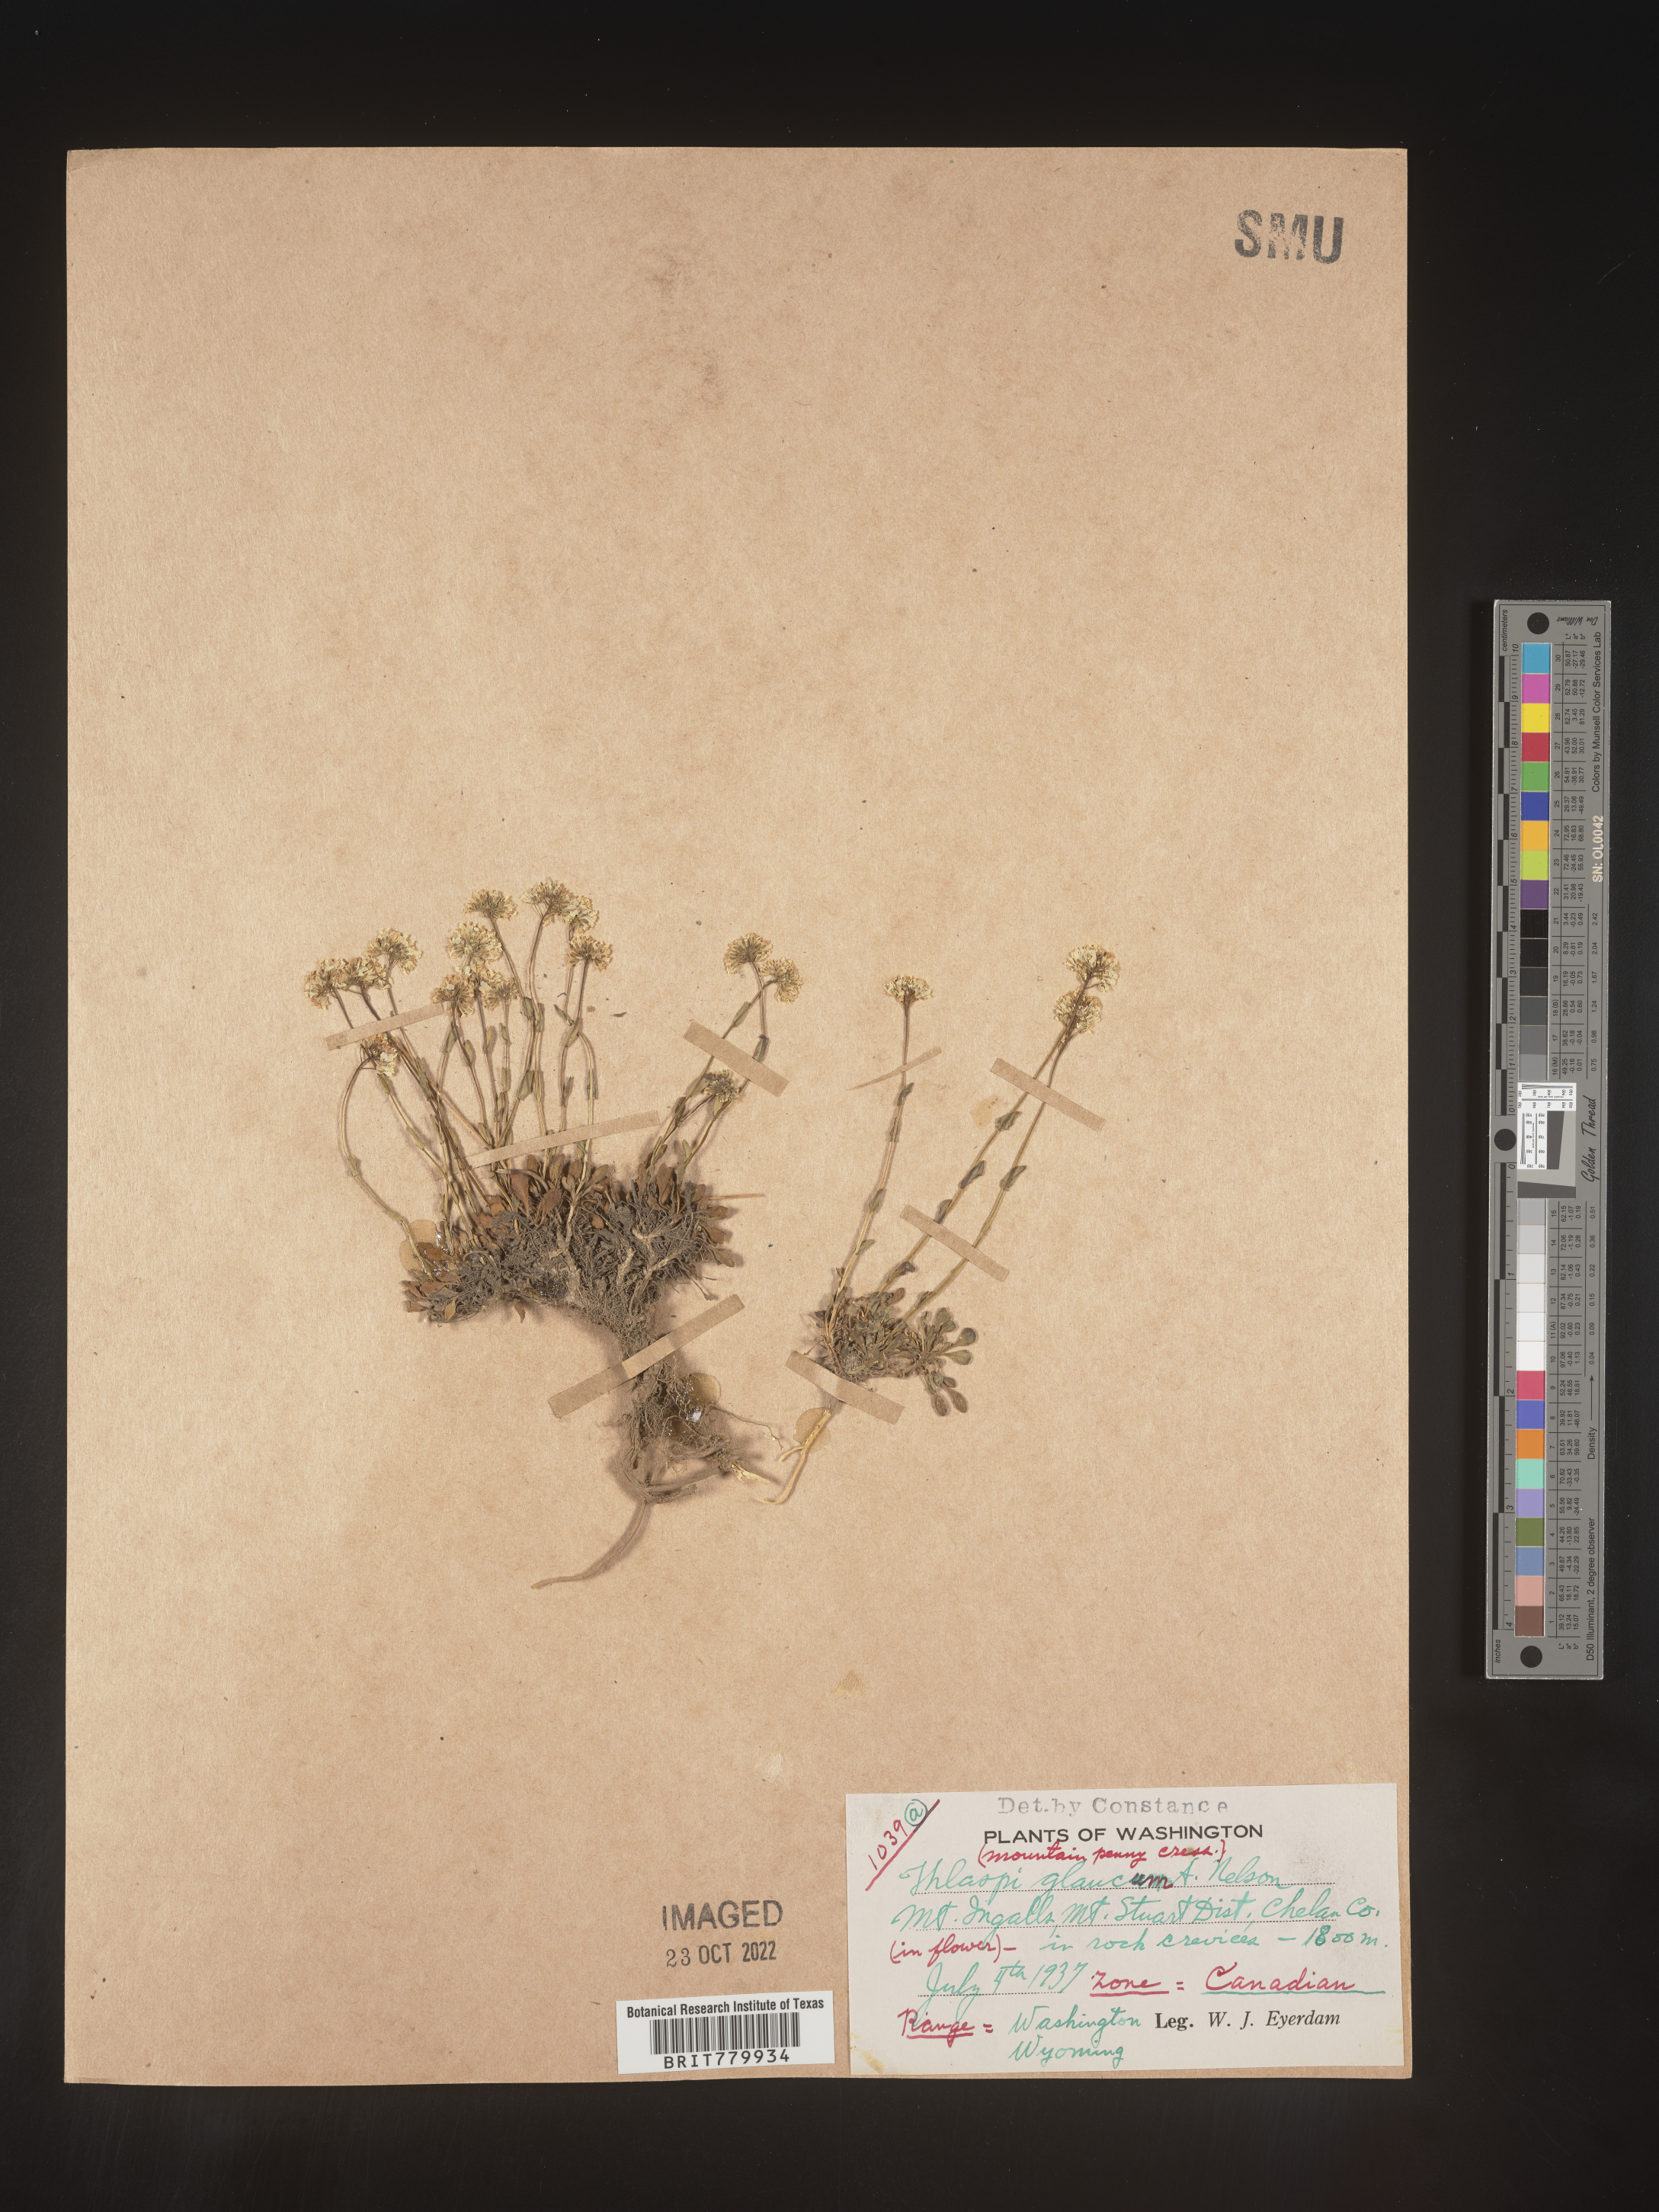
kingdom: Plantae
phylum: Tracheophyta
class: Magnoliopsida
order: Brassicales
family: Brassicaceae
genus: Thlaspi
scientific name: Thlaspi
